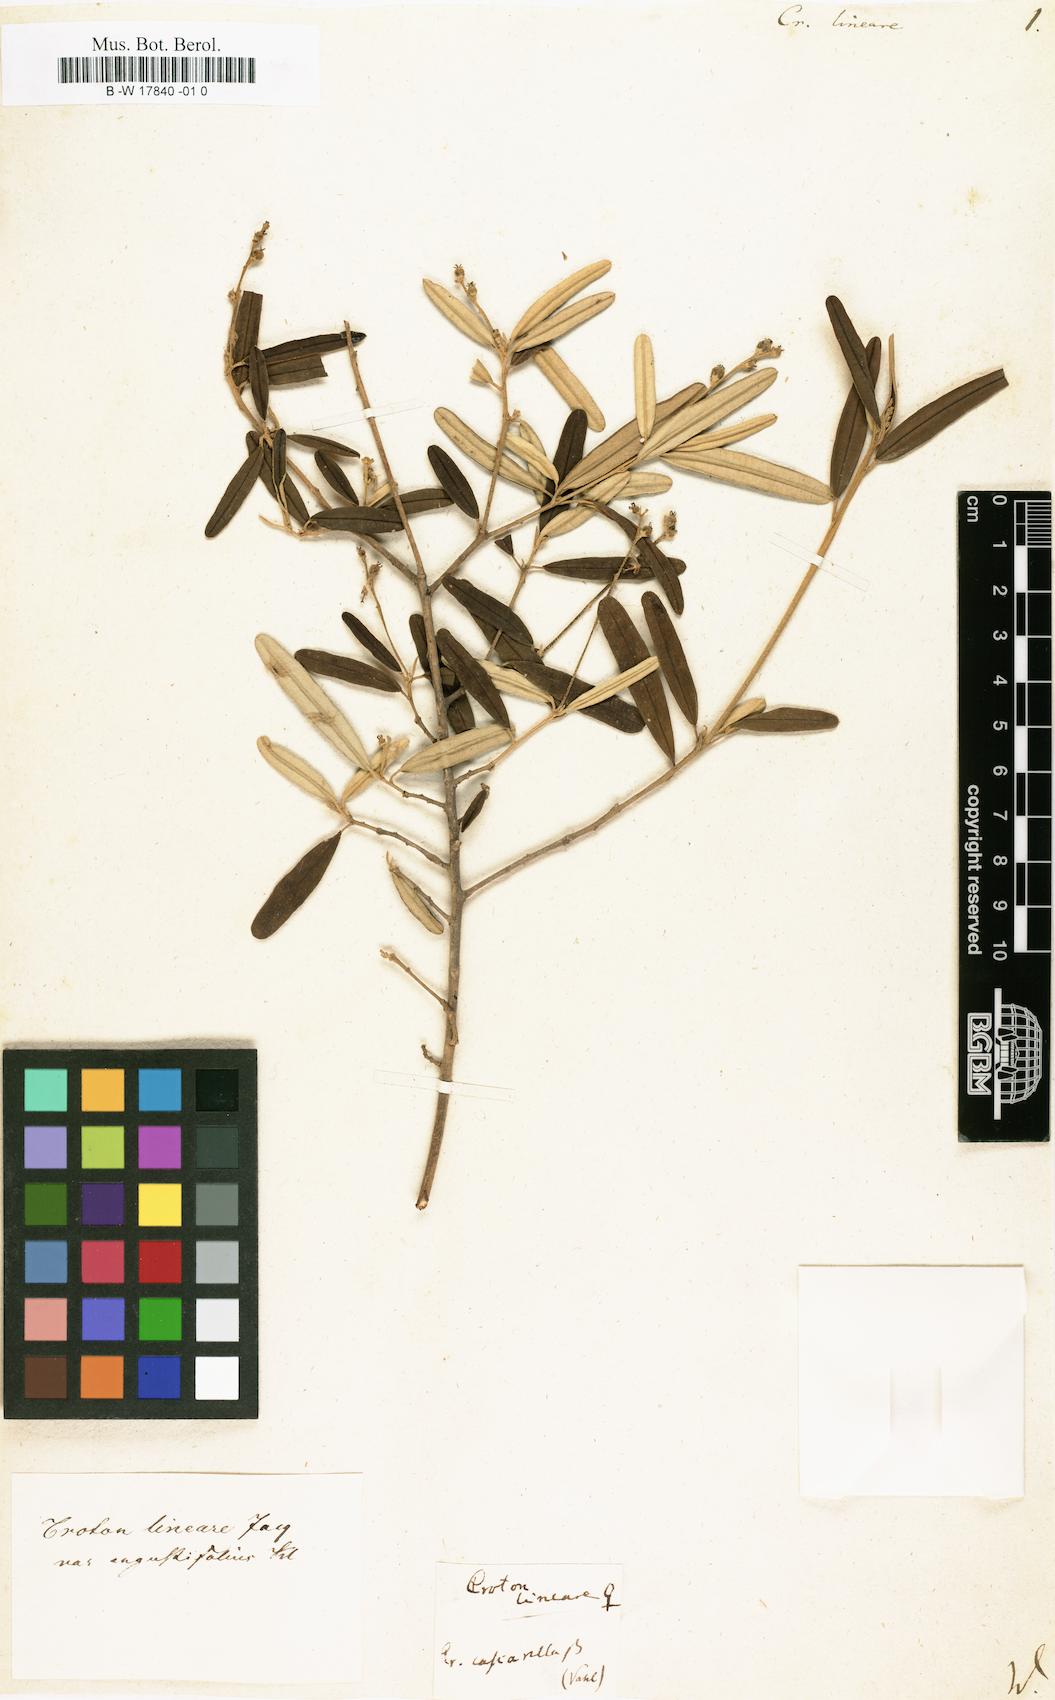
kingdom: Plantae
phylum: Tracheophyta
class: Magnoliopsida
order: Malpighiales
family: Euphorbiaceae
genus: Croton
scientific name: Croton linearis
